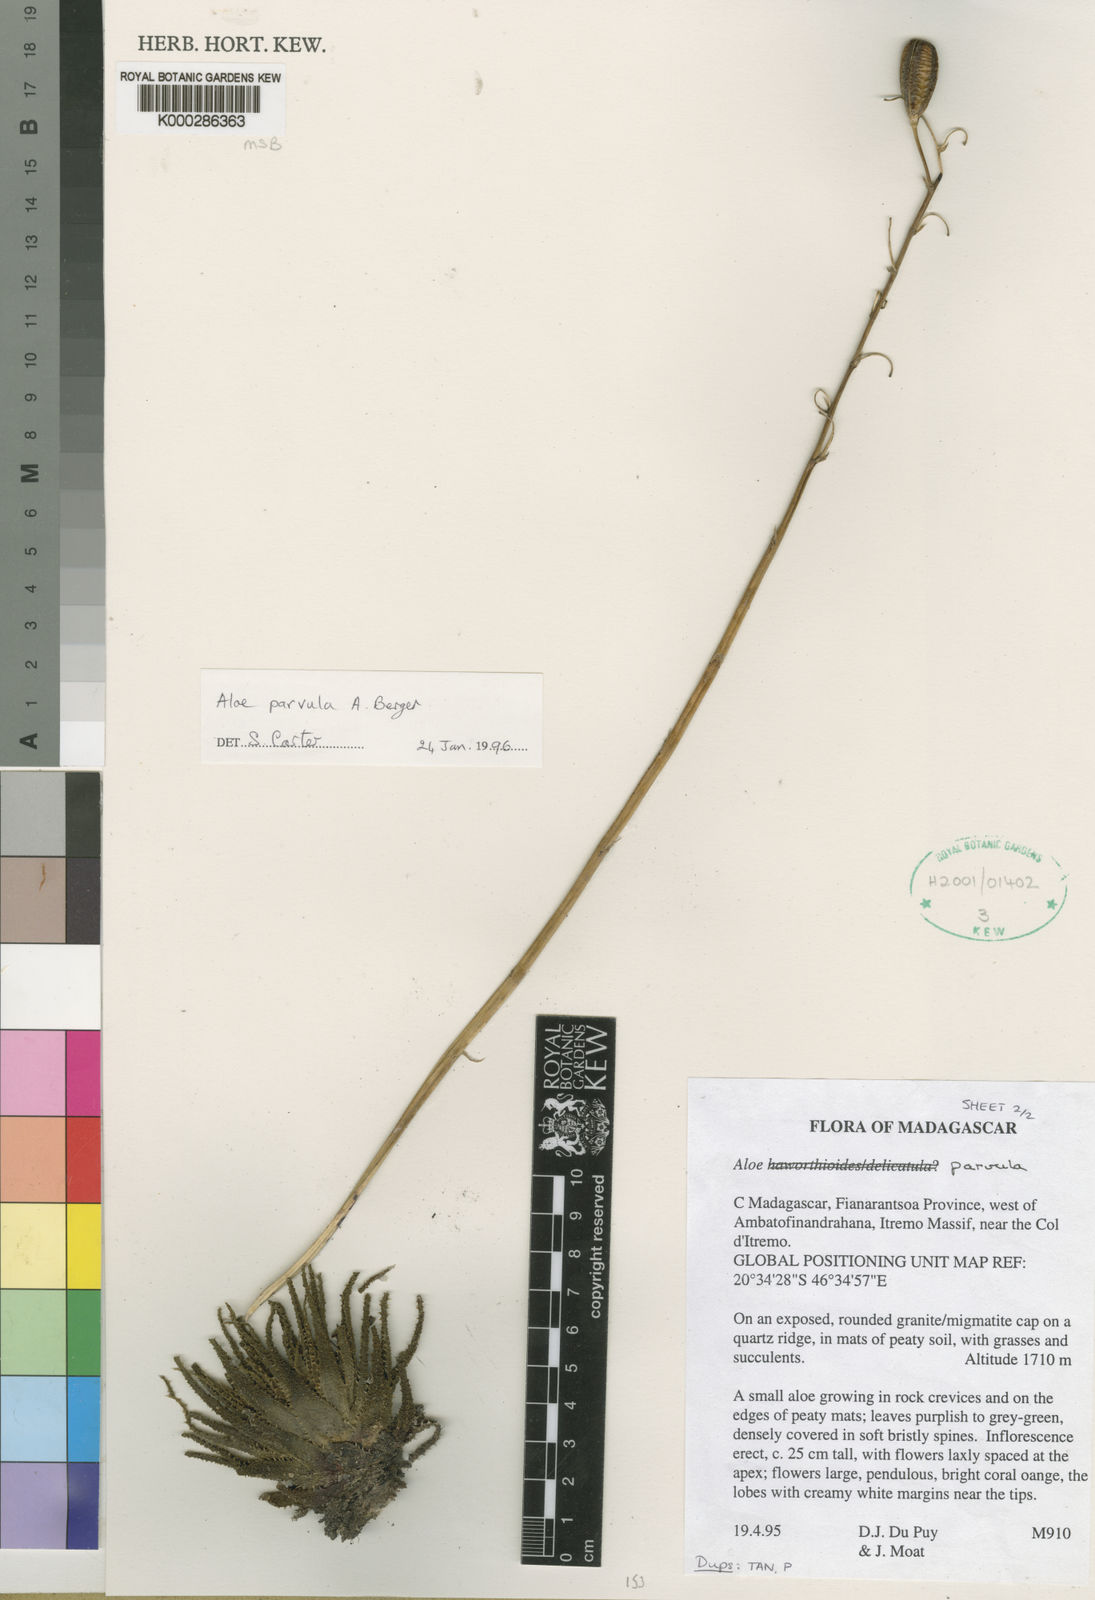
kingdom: Plantae
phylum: Tracheophyta
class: Liliopsida
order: Asparagales
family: Asphodelaceae
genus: Aloe
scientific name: Aloe parvula
